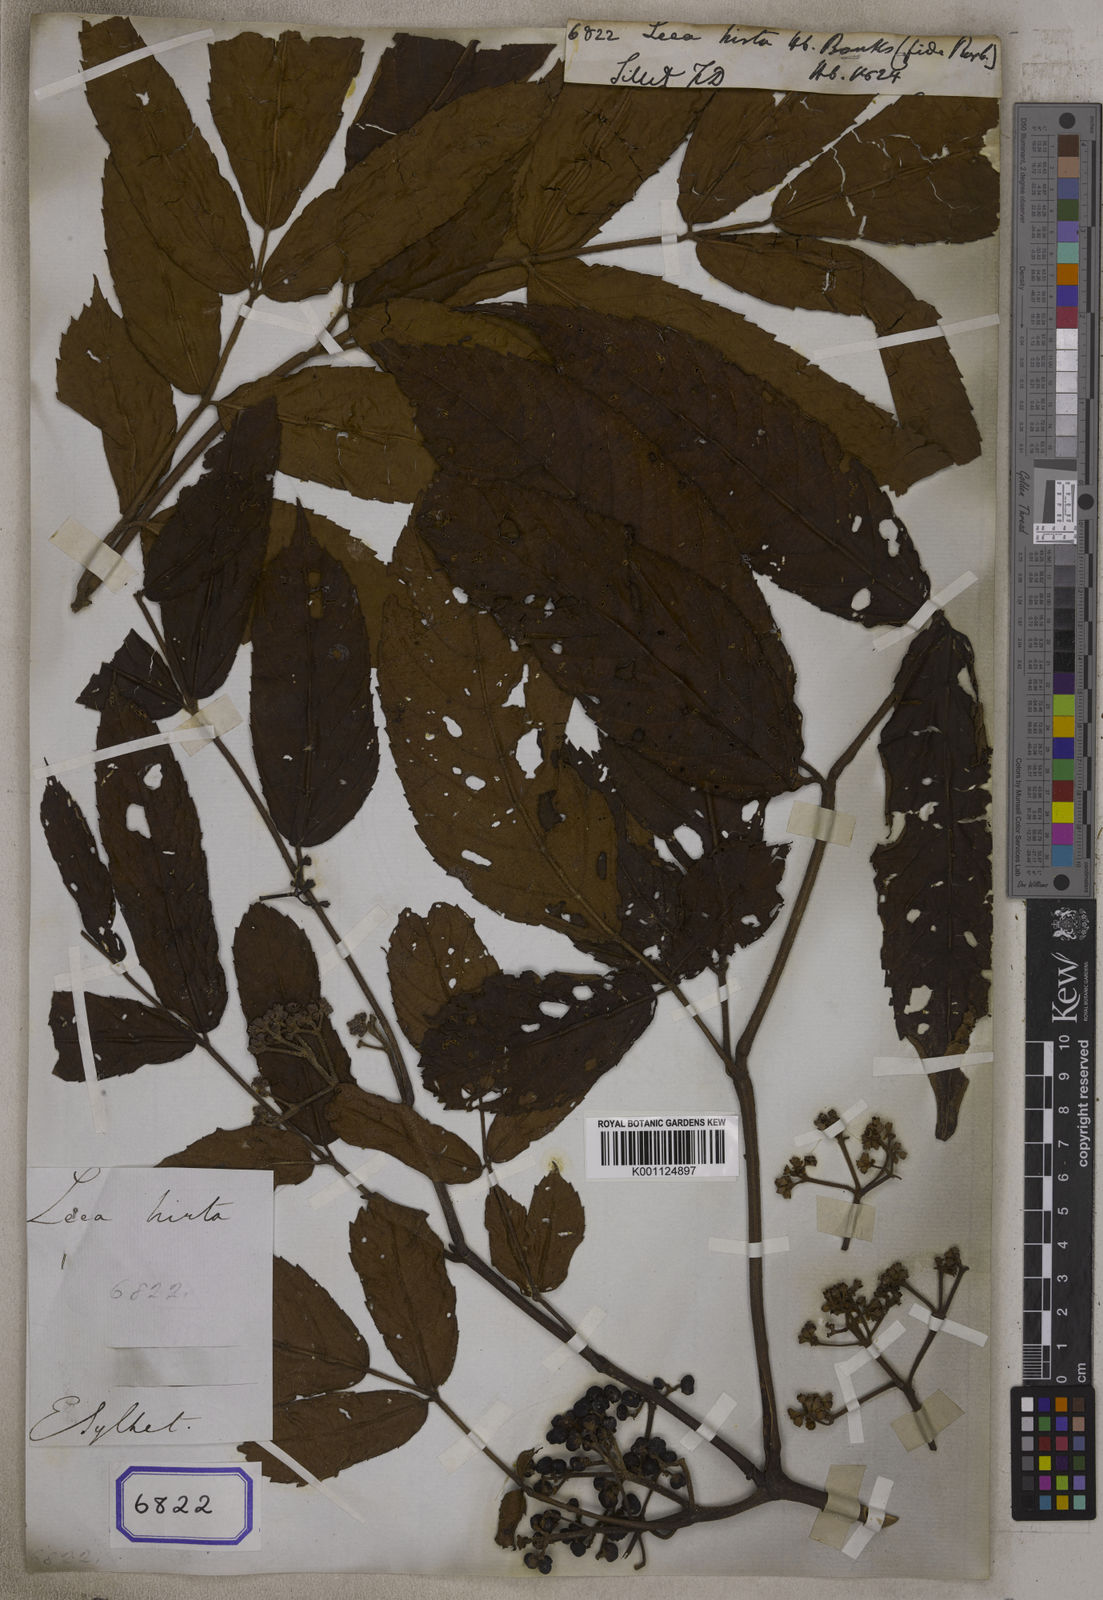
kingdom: Plantae
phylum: Tracheophyta
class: Magnoliopsida
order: Vitales
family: Vitaceae
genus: Leea
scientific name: Leea
